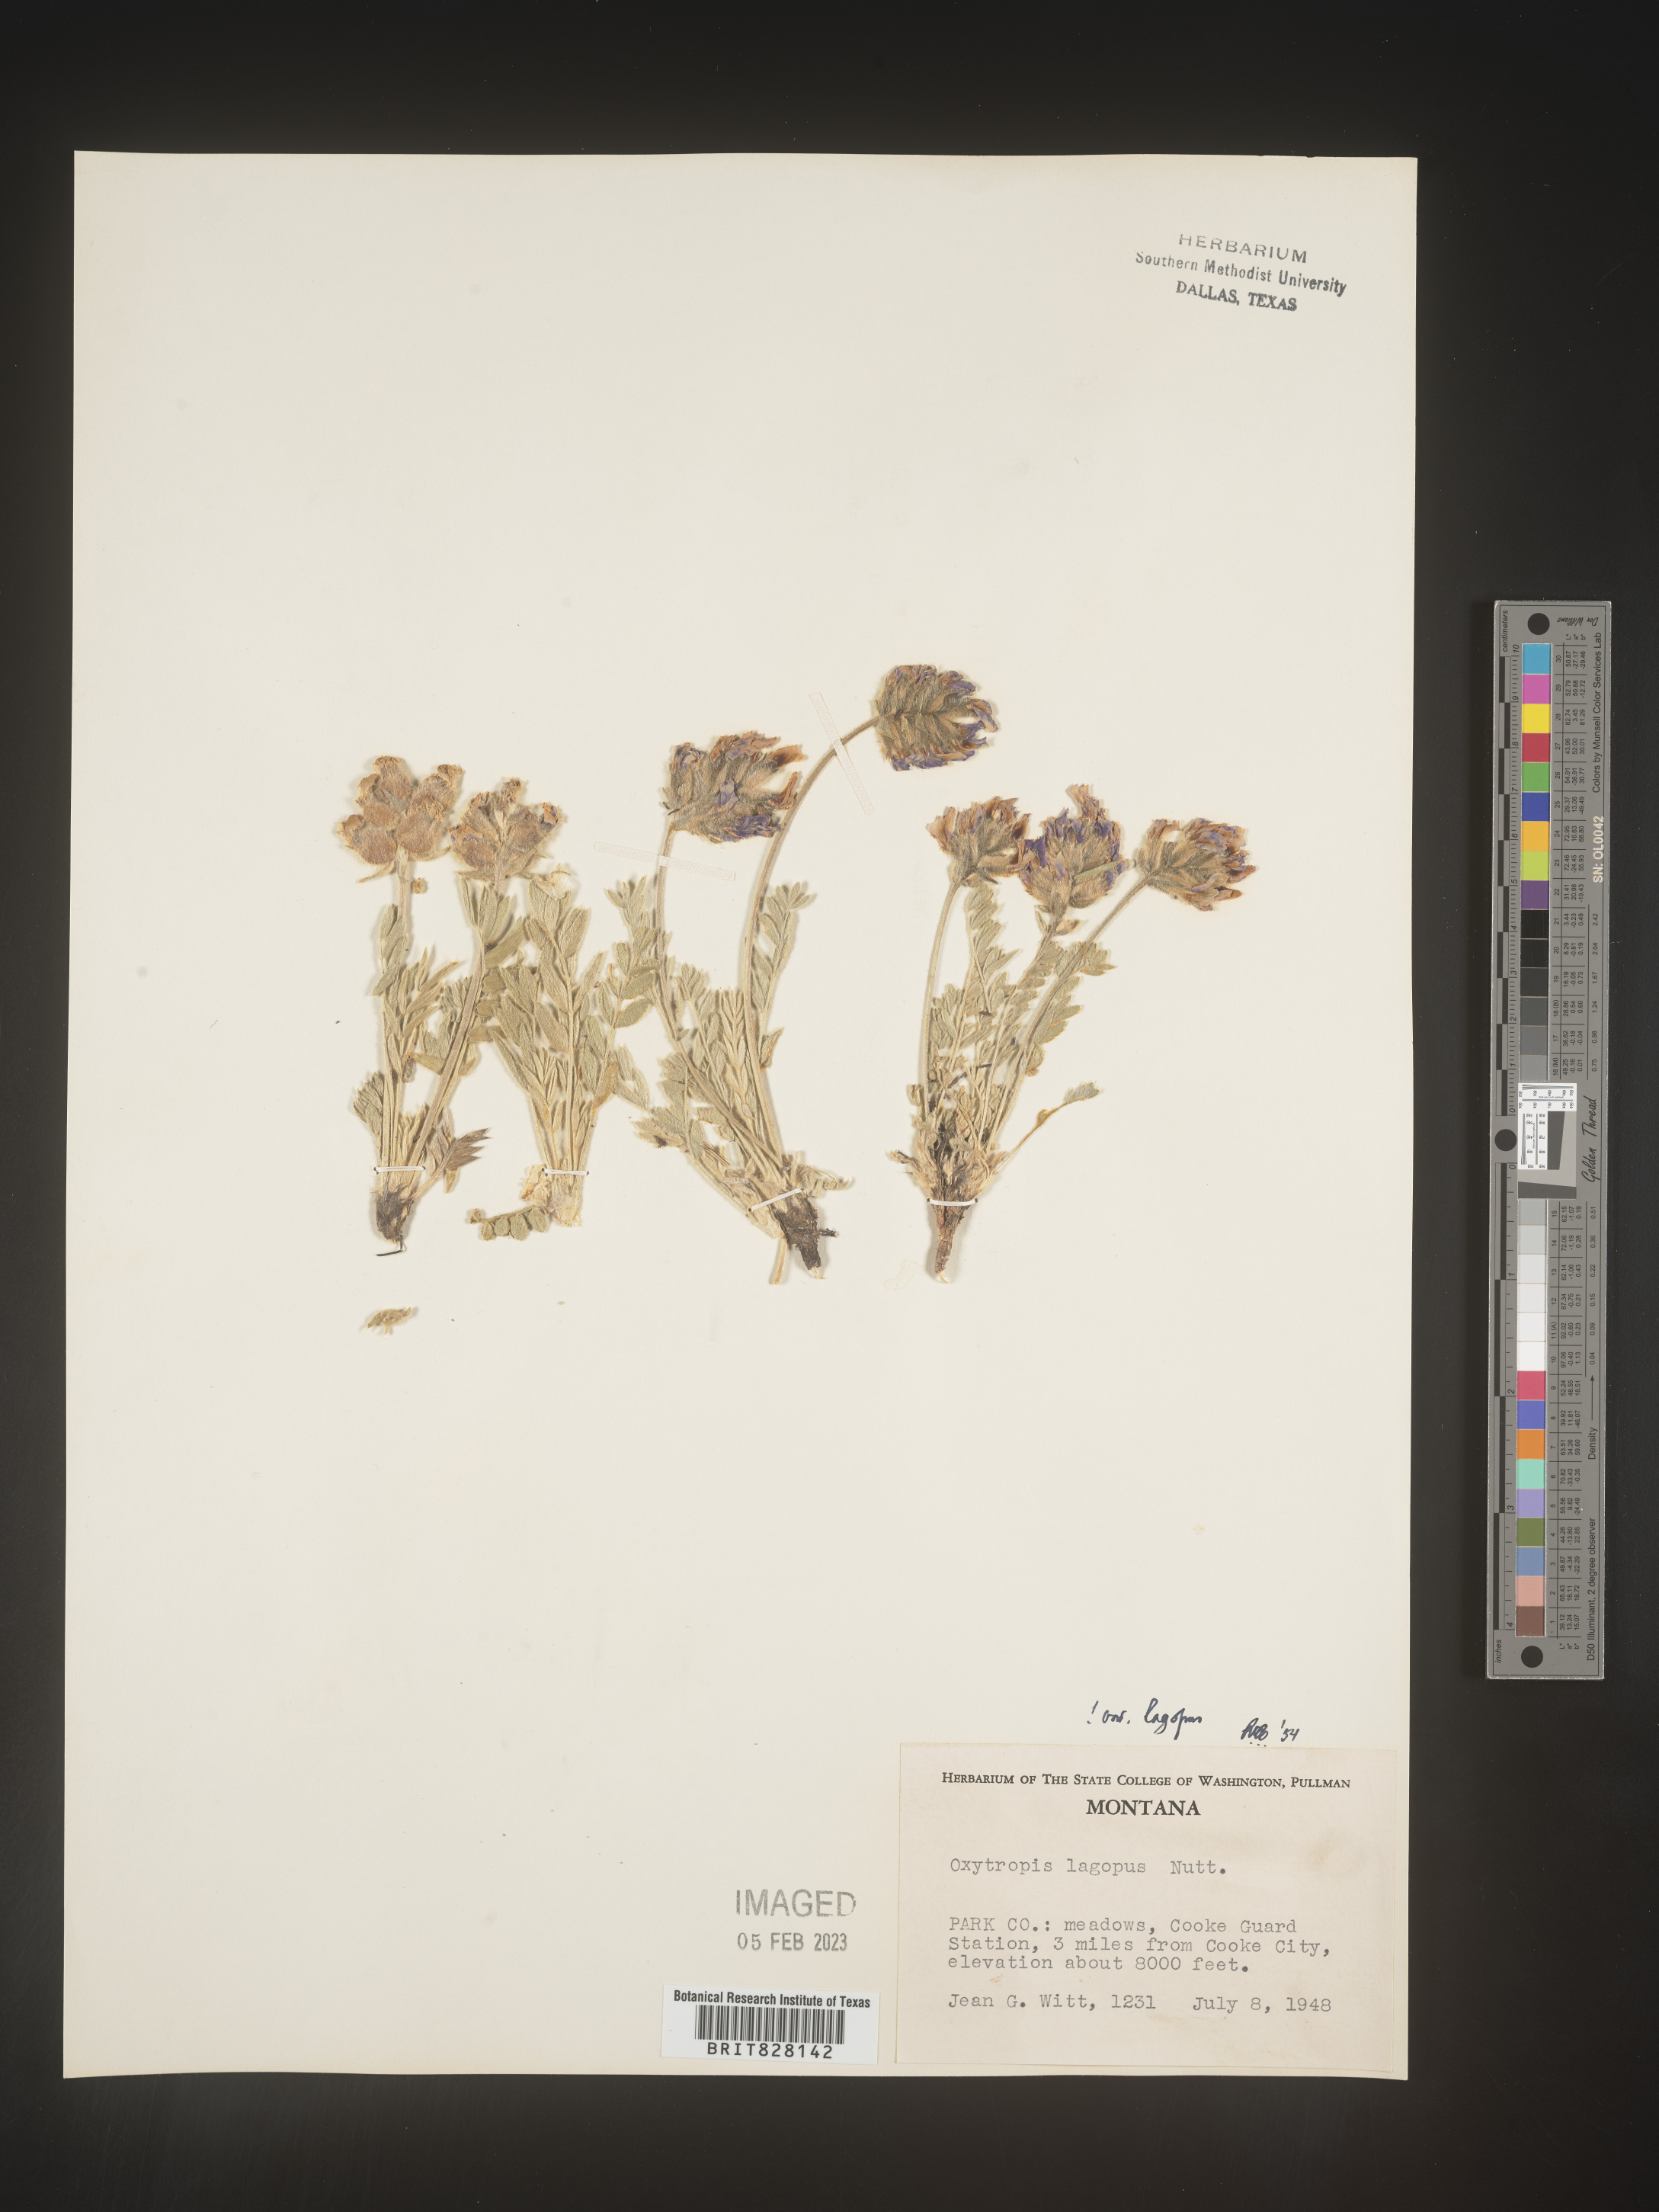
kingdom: Plantae
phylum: Tracheophyta
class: Magnoliopsida
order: Fabales
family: Fabaceae
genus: Oxytropis
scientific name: Oxytropis
